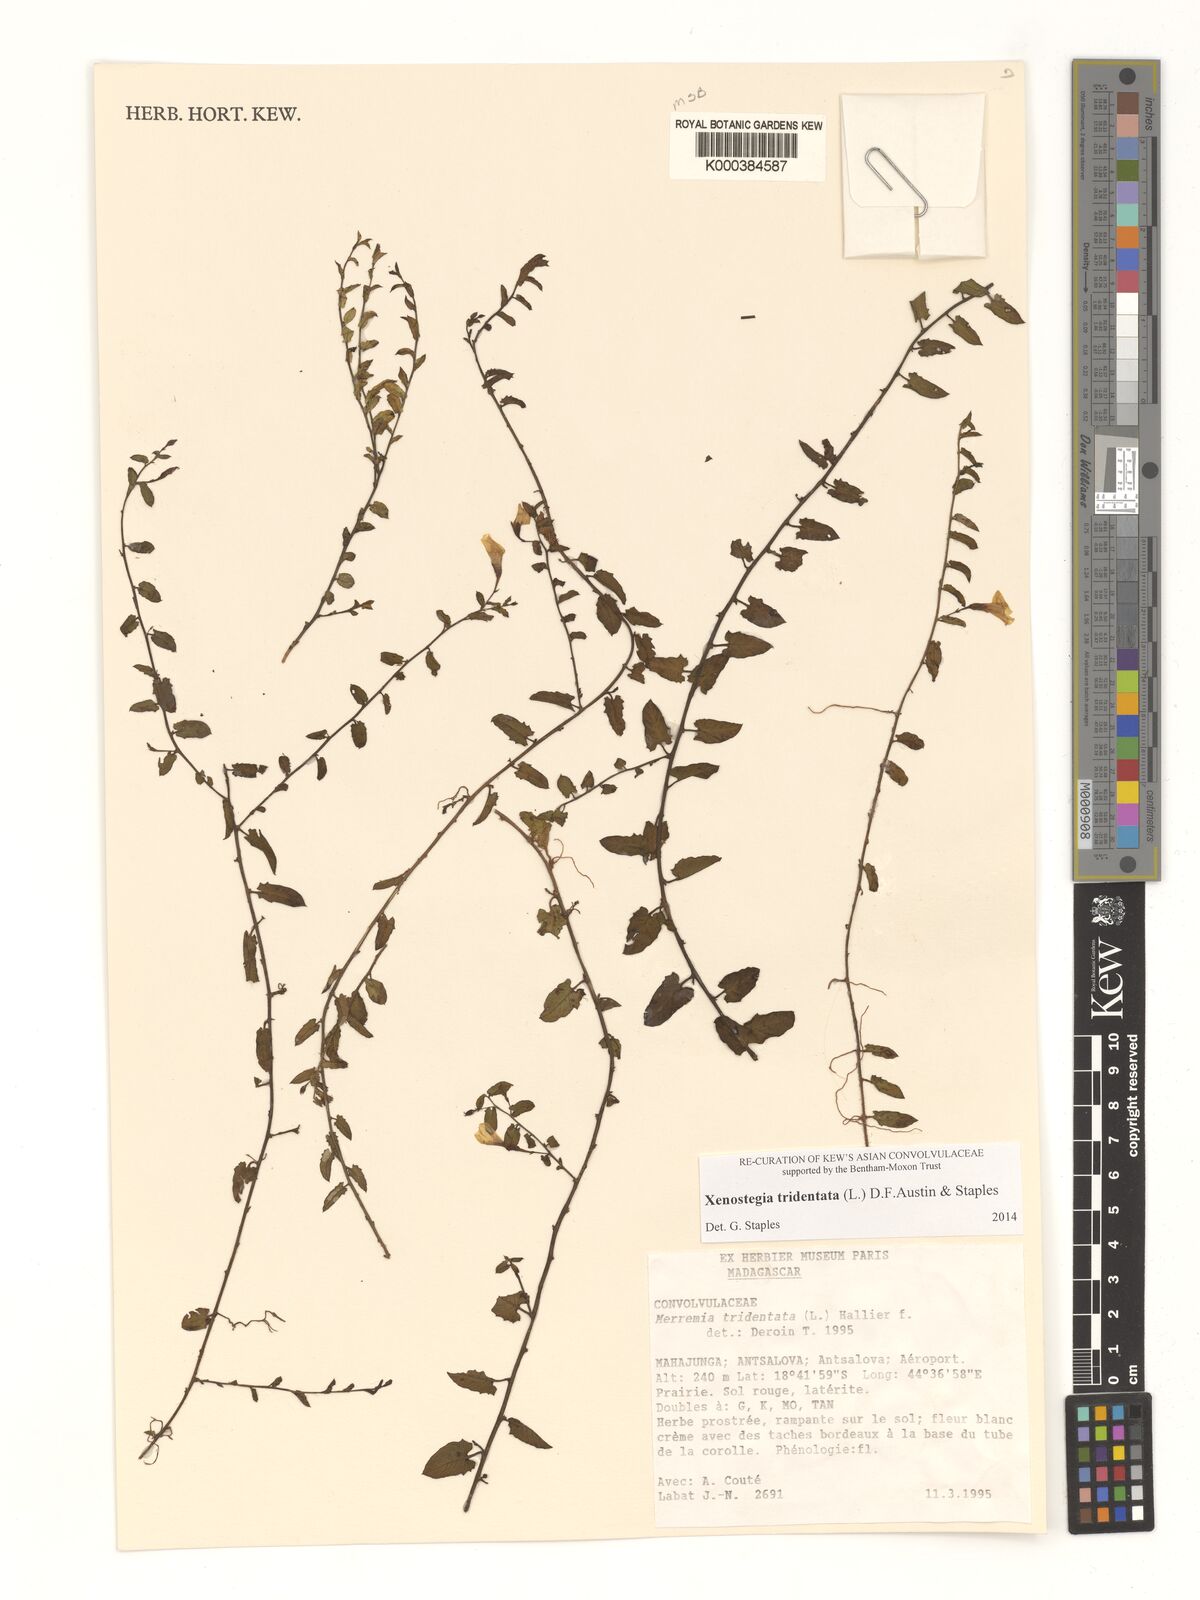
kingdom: Plantae
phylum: Tracheophyta
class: Magnoliopsida
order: Solanales
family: Convolvulaceae
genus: Xenostegia
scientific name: Xenostegia tridentata
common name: African morningvine
